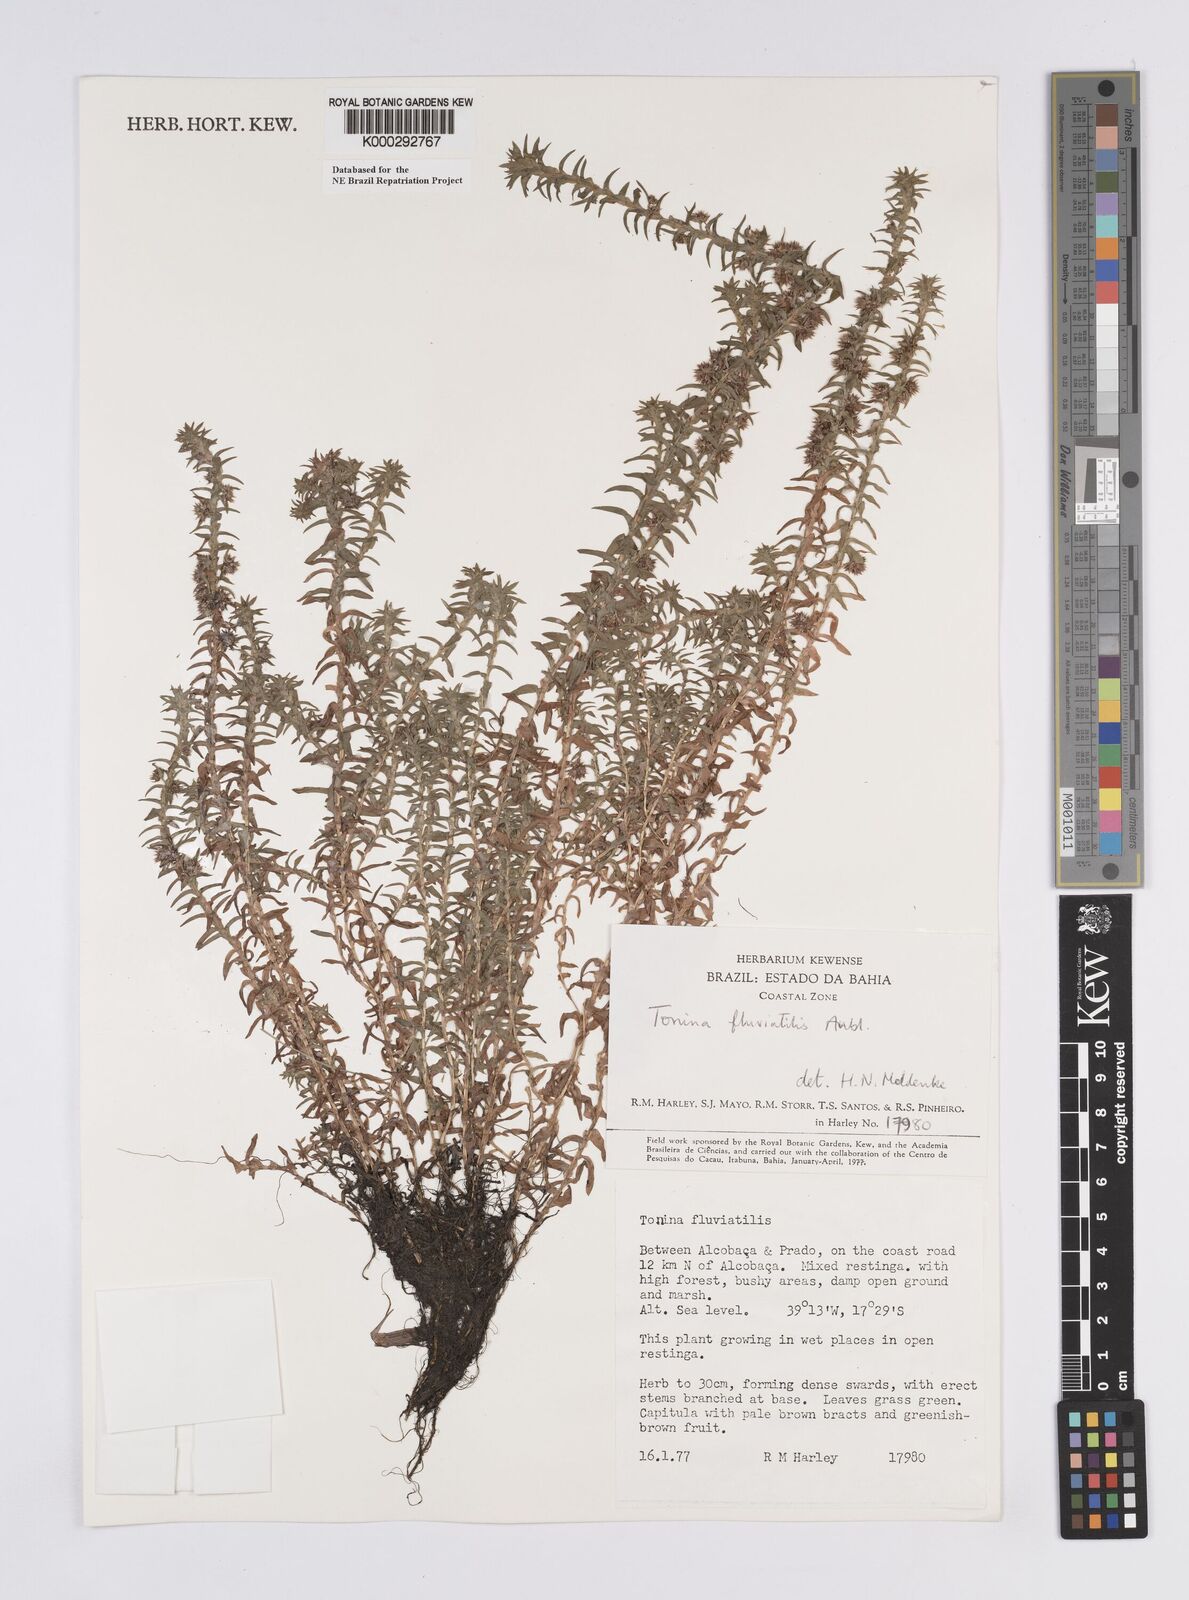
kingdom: Plantae
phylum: Tracheophyta
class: Liliopsida
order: Poales
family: Eriocaulaceae
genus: Paepalanthus
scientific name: Paepalanthus
